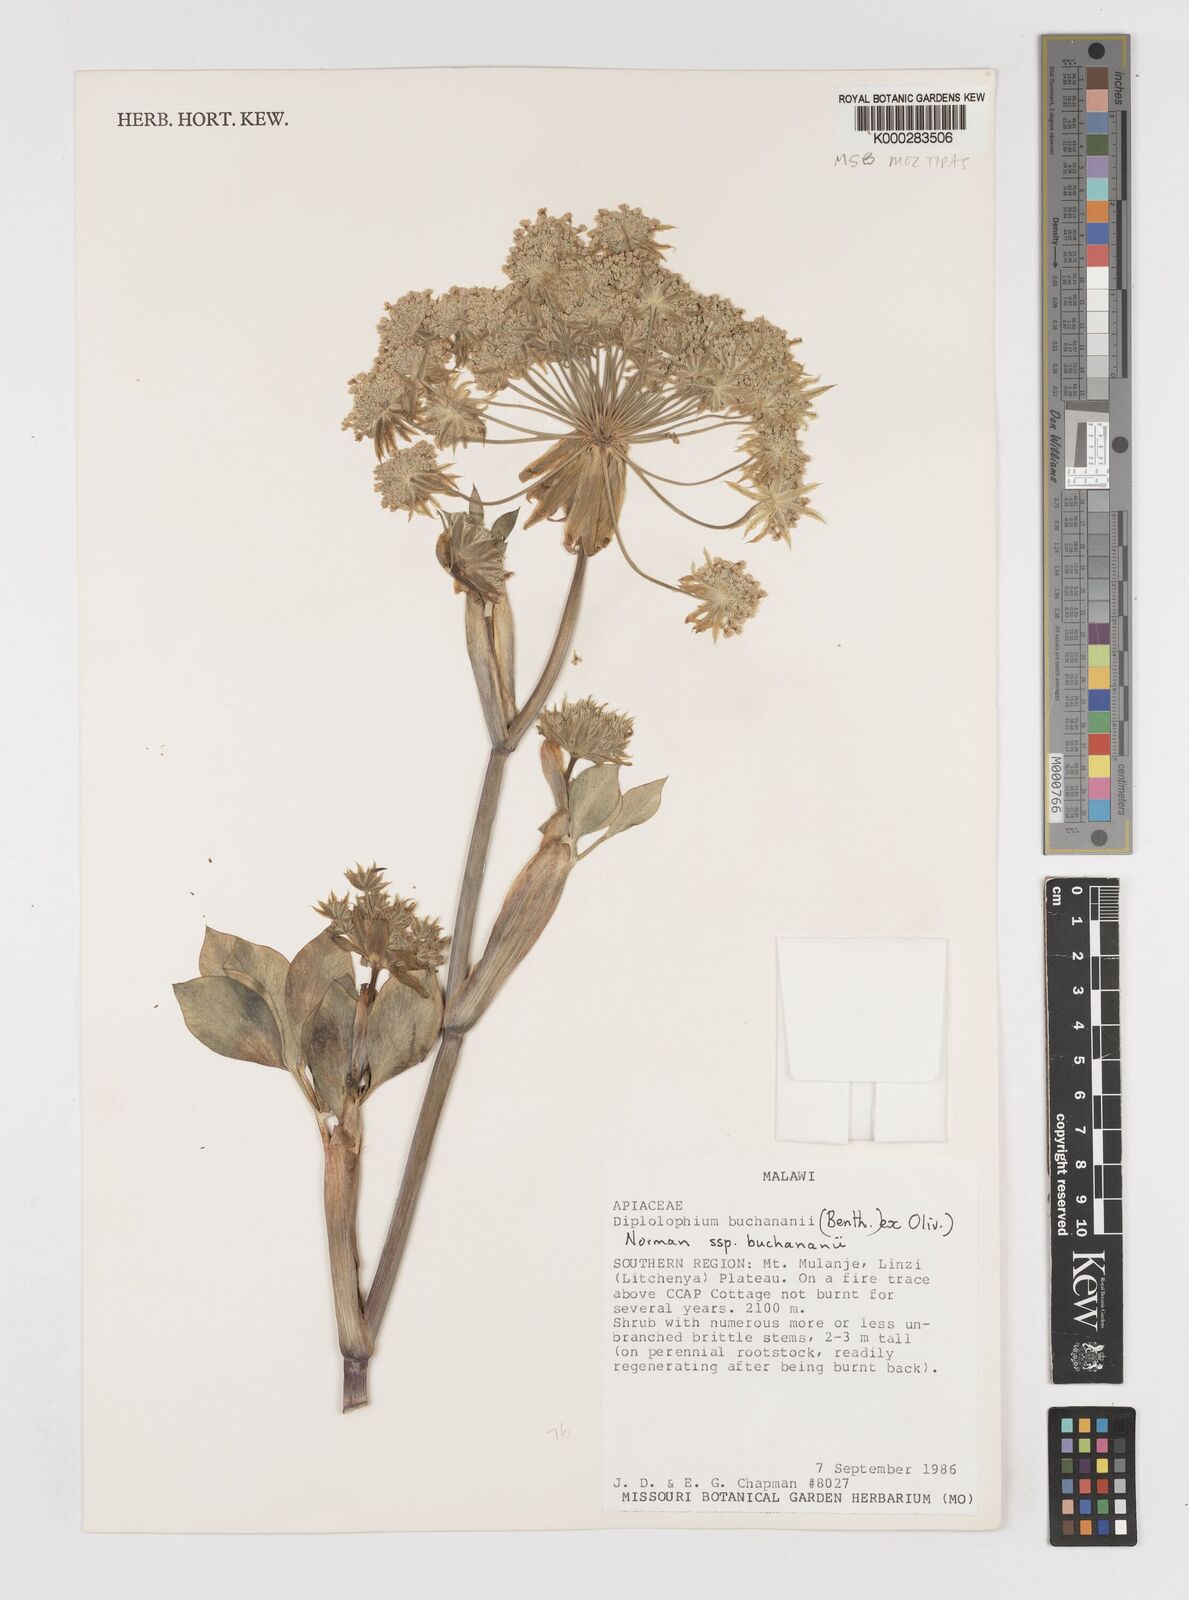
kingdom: Plantae
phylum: Tracheophyta
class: Magnoliopsida
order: Apiales
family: Apiaceae
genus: Diplolophium
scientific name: Diplolophium buchananii
